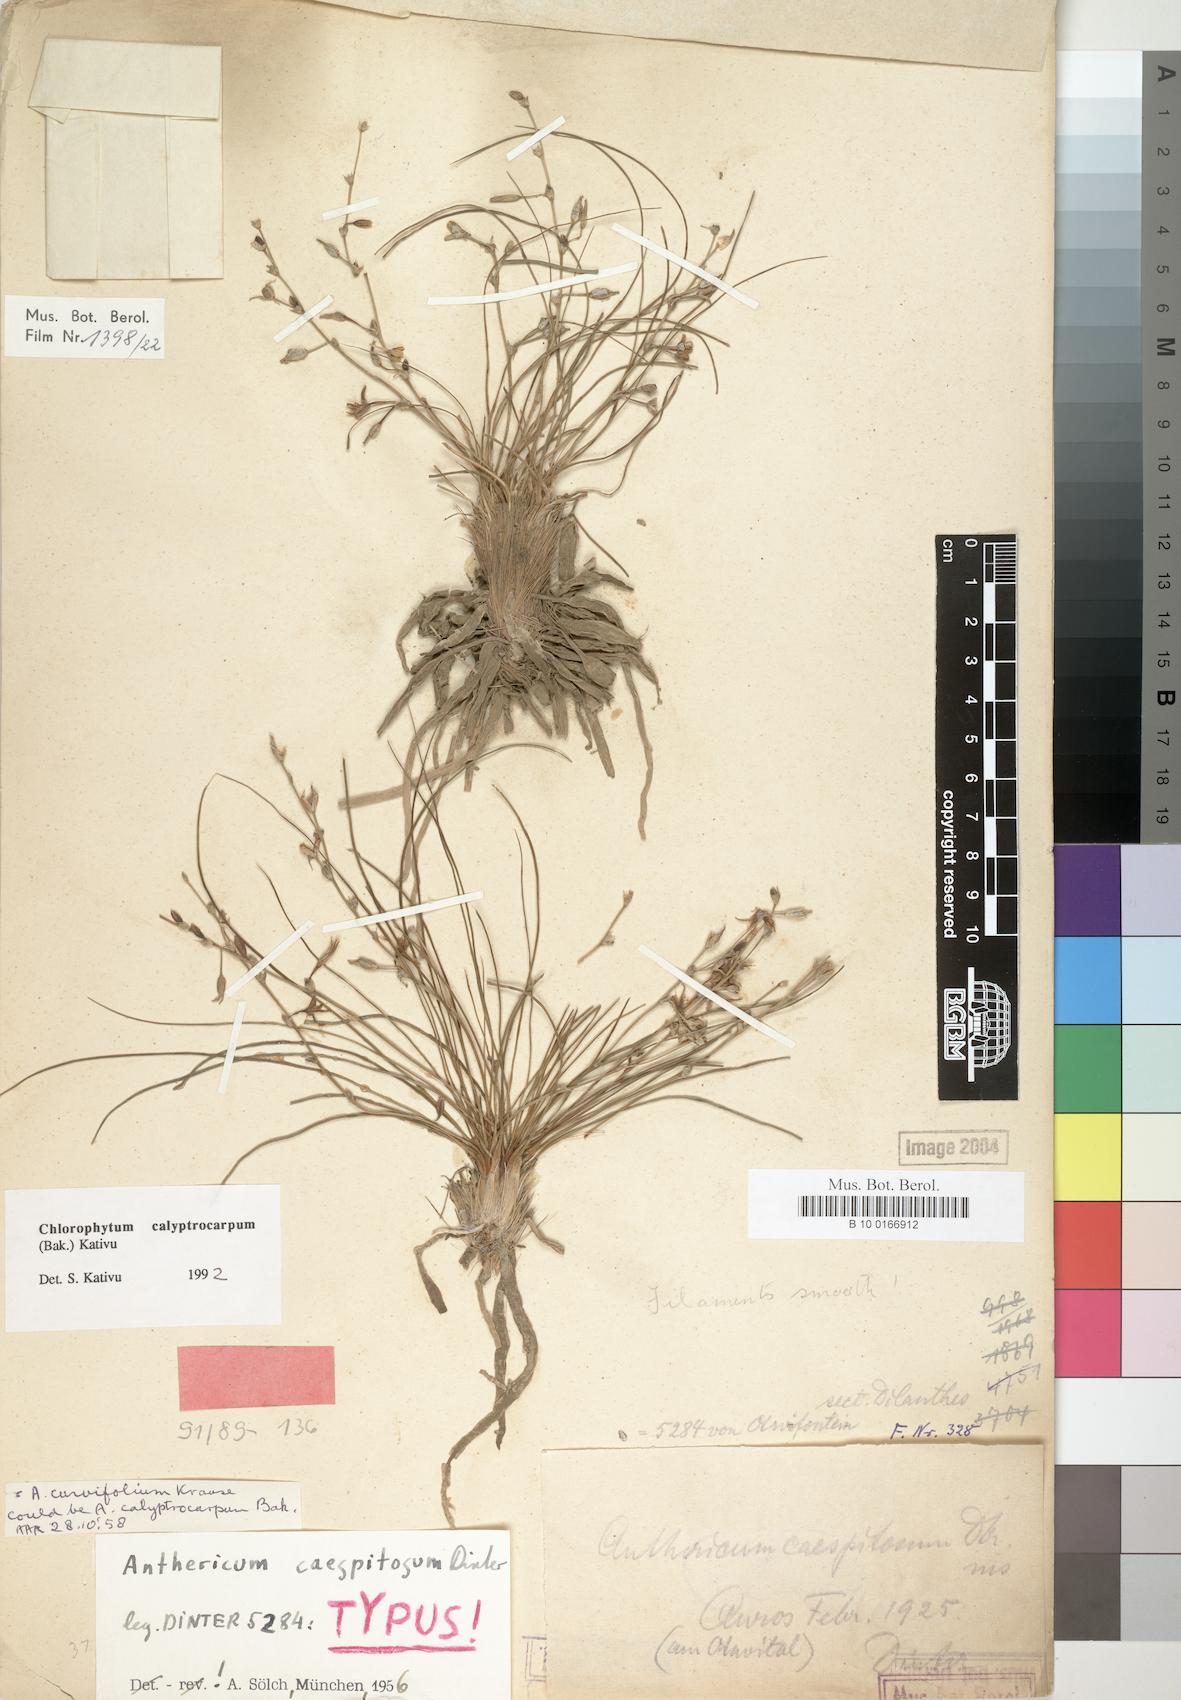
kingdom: Plantae
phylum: Tracheophyta
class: Liliopsida
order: Asparagales
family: Asparagaceae
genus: Chlorophytum
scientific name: Chlorophytum calyptrocarpum
